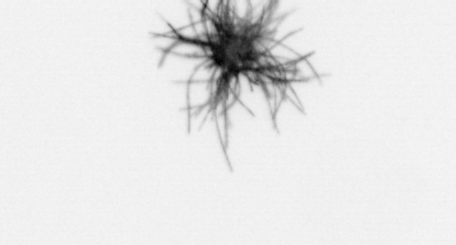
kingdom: Bacteria
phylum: Cyanobacteria
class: Cyanobacteriia
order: Cyanobacteriales
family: Microcoleaceae
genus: Trichodesmium
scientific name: Trichodesmium
